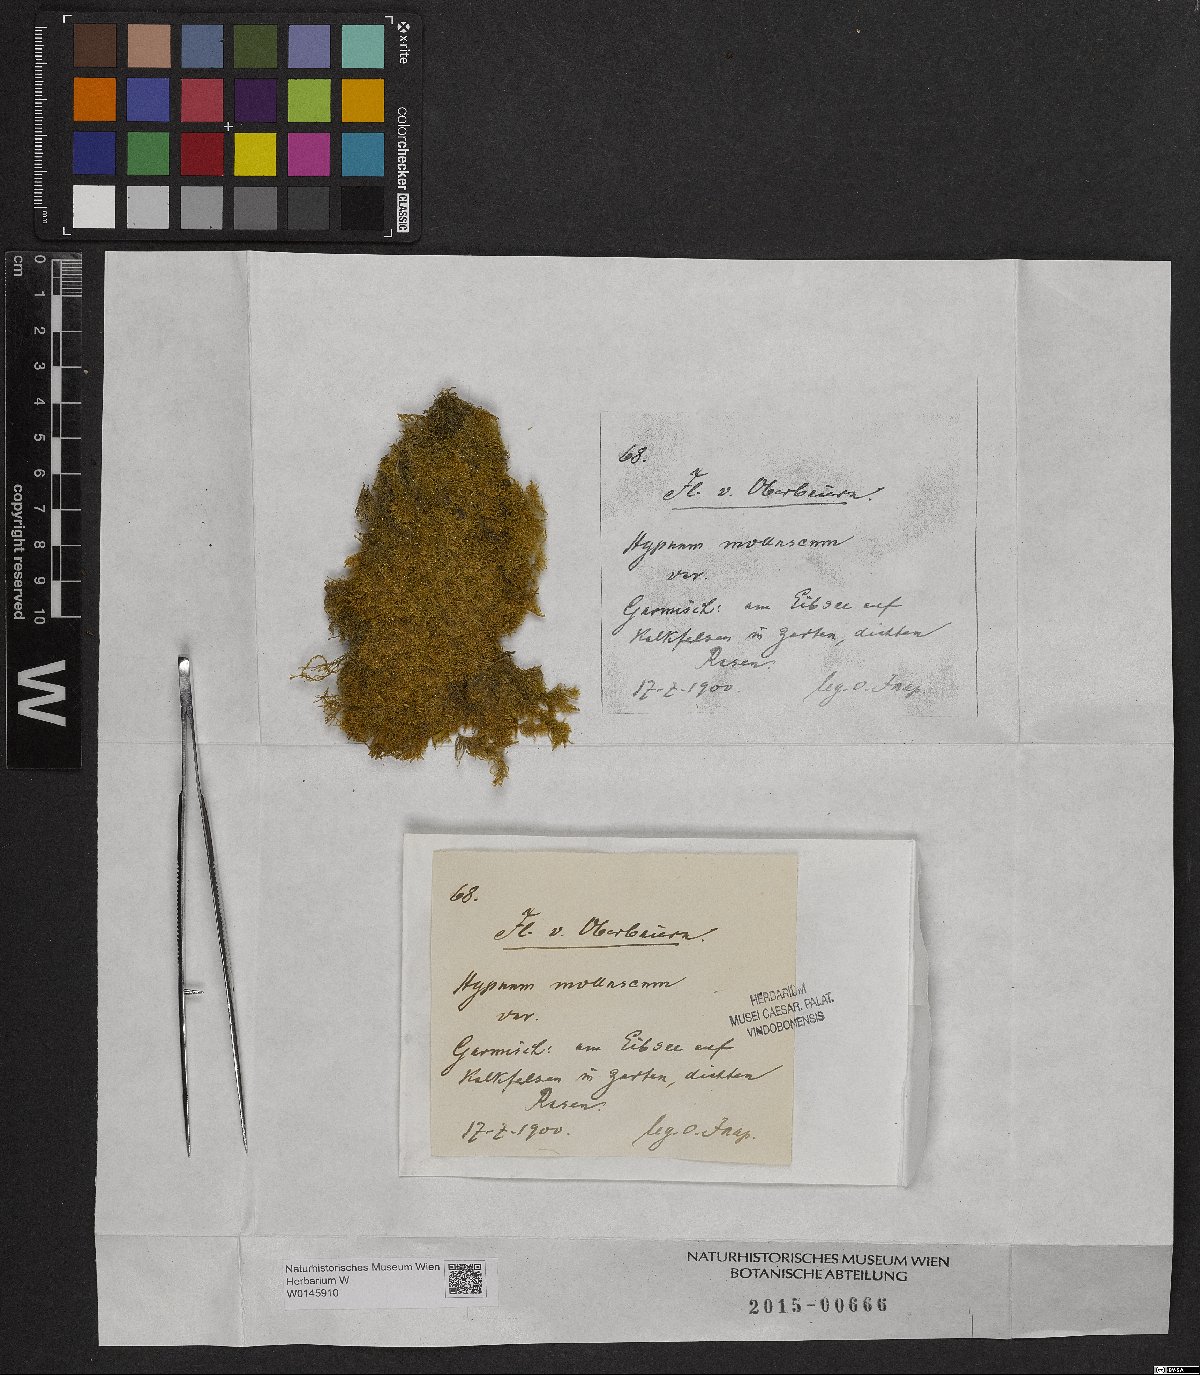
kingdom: Plantae
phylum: Bryophyta
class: Bryopsida
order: Hypnales
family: Myuriaceae
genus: Ctenidium
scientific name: Ctenidium molluscum
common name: Chalk comb-moss
